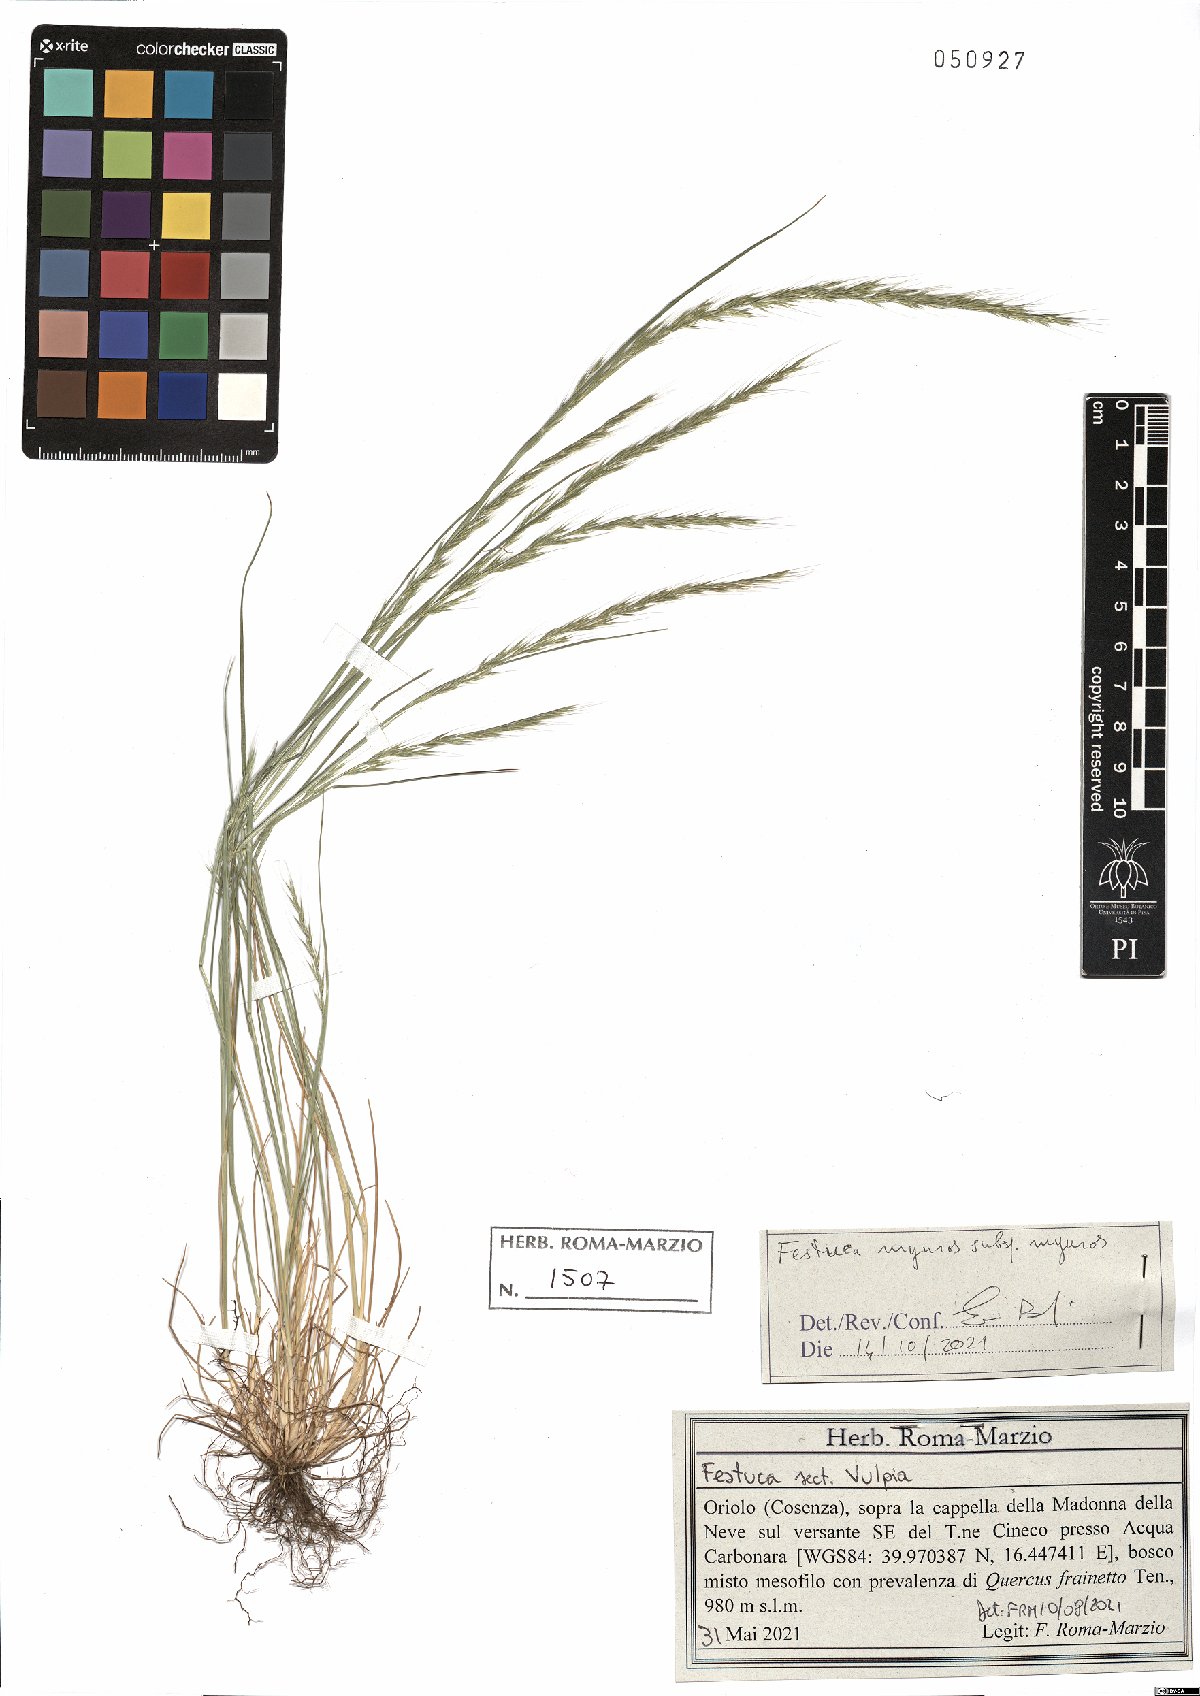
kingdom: Plantae
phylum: Tracheophyta
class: Liliopsida
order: Poales
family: Poaceae
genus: Festuca
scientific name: Festuca myuros
